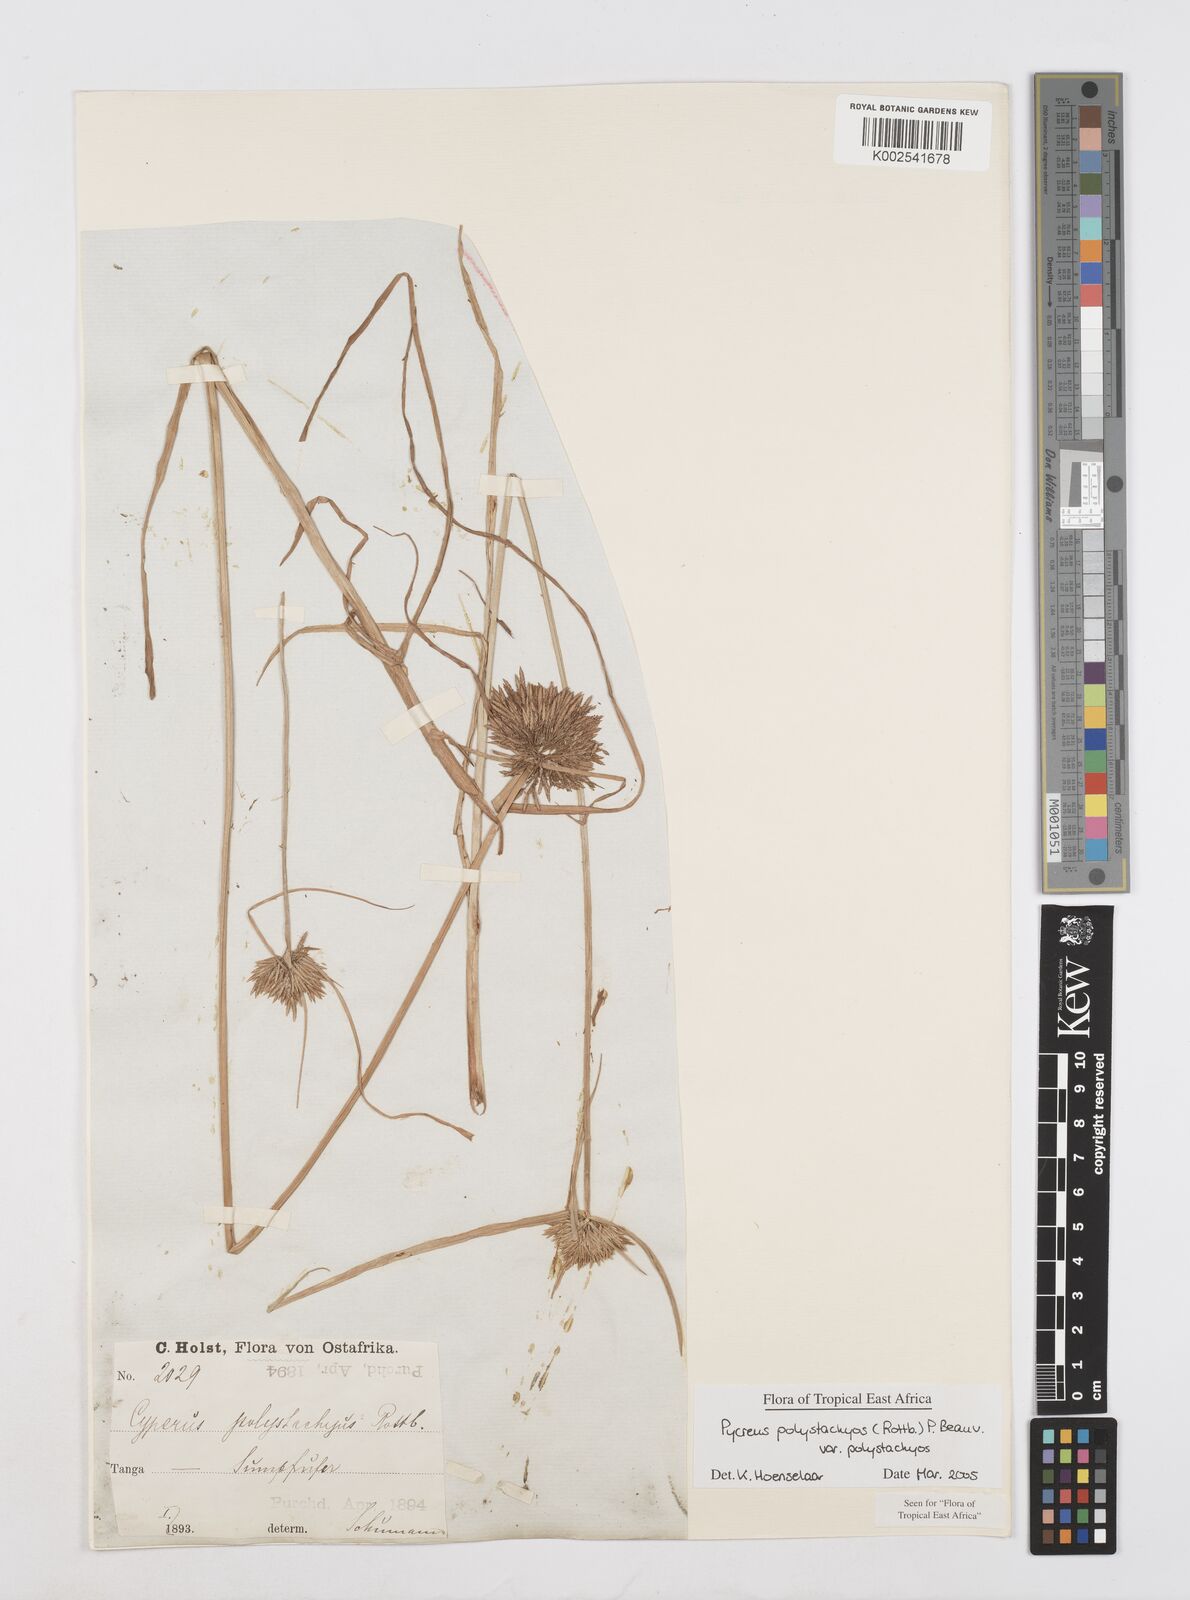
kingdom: Plantae
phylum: Tracheophyta
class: Liliopsida
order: Poales
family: Cyperaceae
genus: Cyperus
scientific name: Cyperus polystachyos
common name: Bunchy flat sedge
